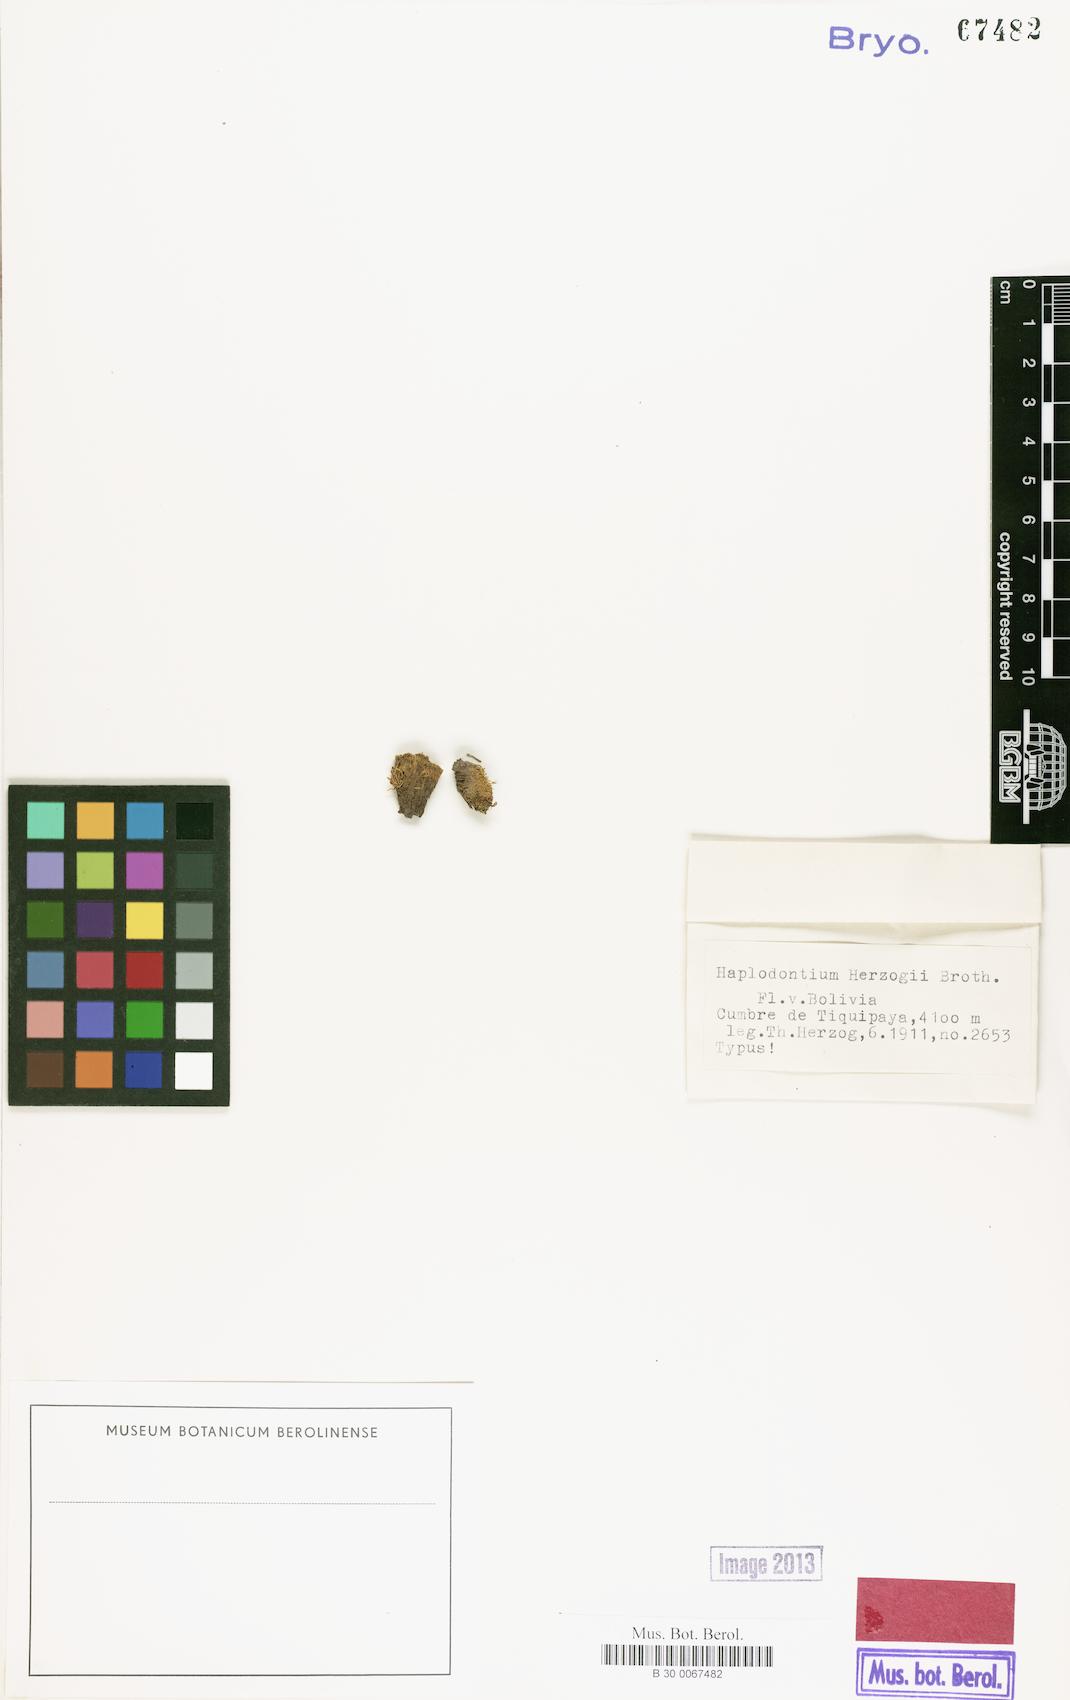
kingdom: Plantae
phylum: Bryophyta
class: Bryopsida
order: Bryales
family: Mniaceae
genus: Mielichhoferia
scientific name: Mielichhoferia julacea
